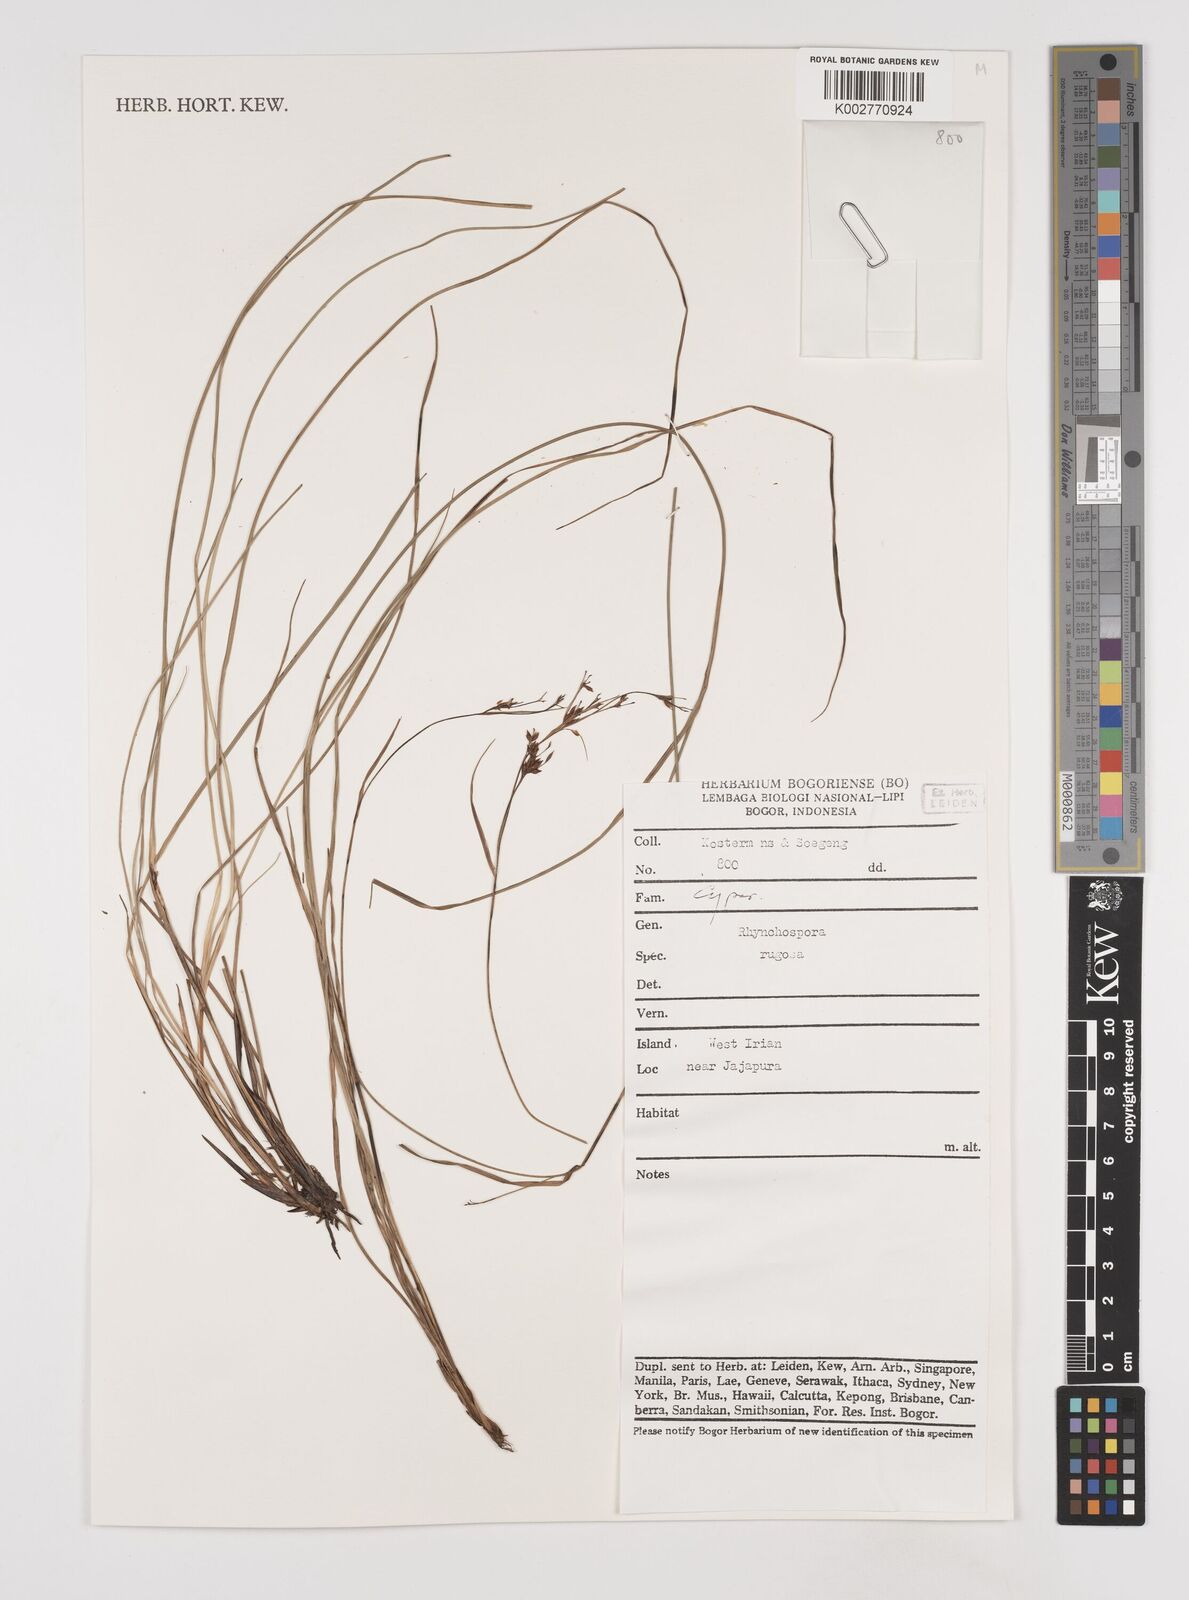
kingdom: Plantae
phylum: Tracheophyta
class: Liliopsida
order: Poales
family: Cyperaceae
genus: Rhynchospora
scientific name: Rhynchospora rugosa
